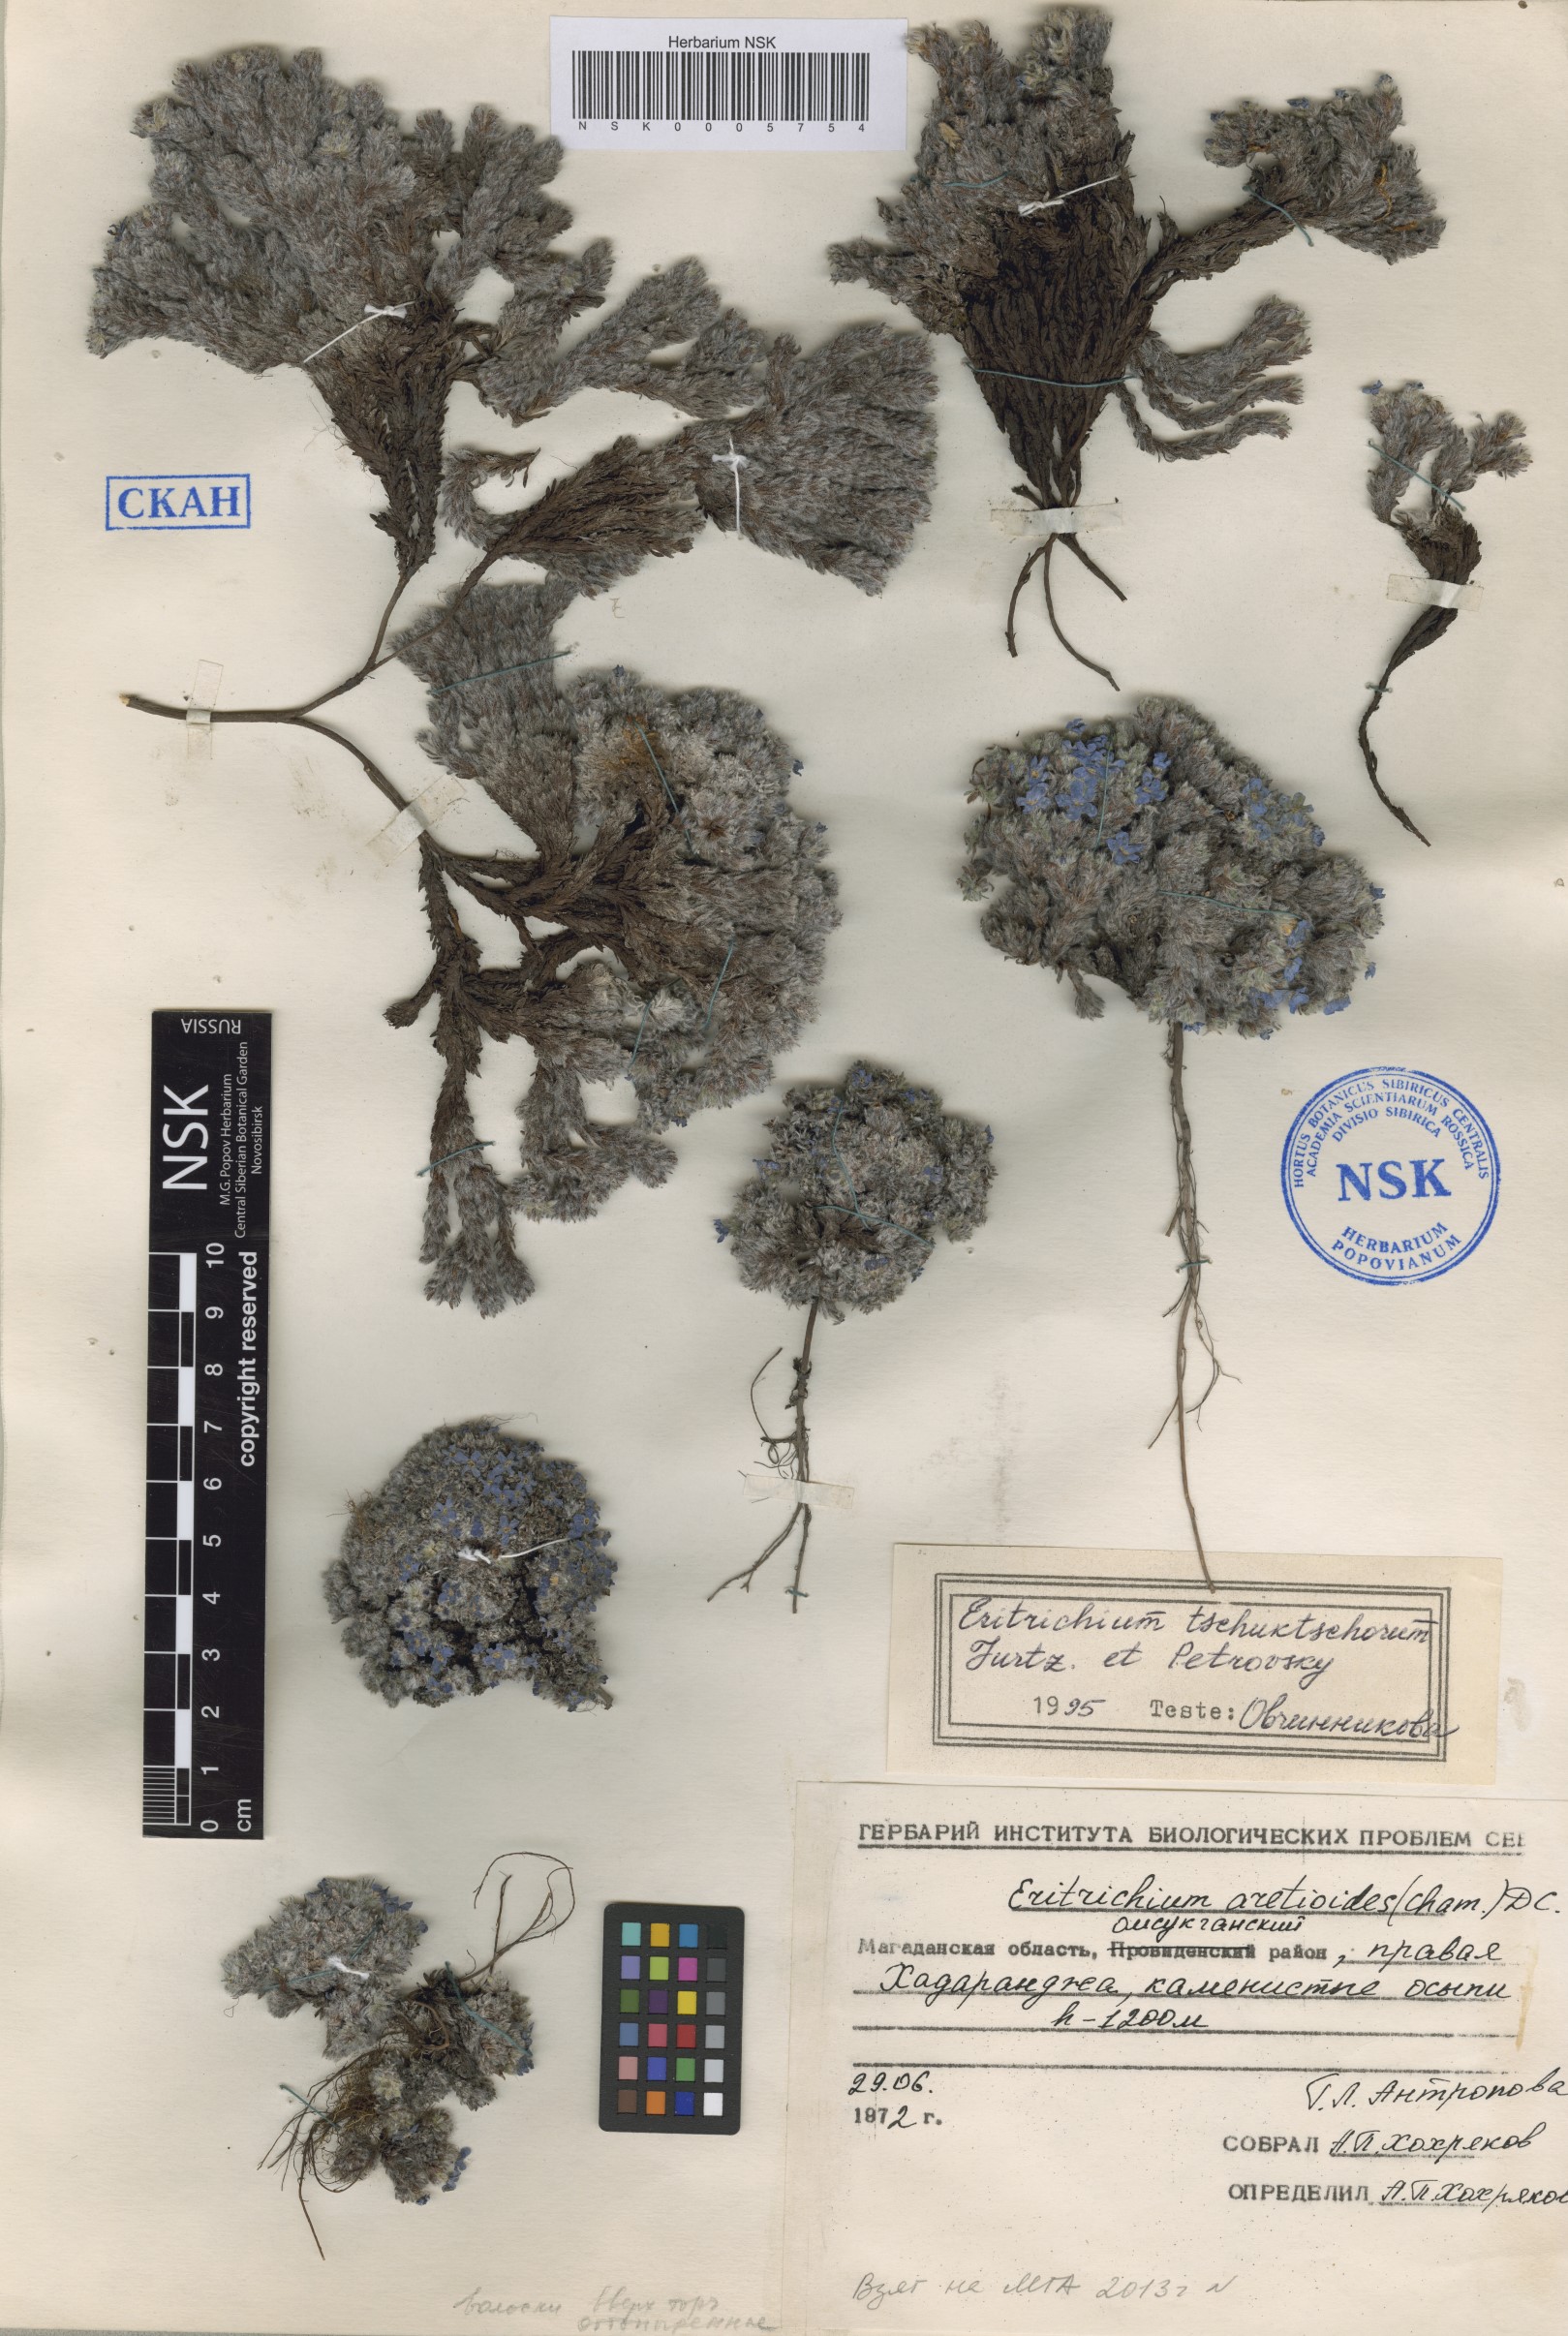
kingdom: Plantae
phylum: Tracheophyta
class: Magnoliopsida
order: Boraginales
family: Boraginaceae
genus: Eritrichium
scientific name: Eritrichium tschuktschorum
